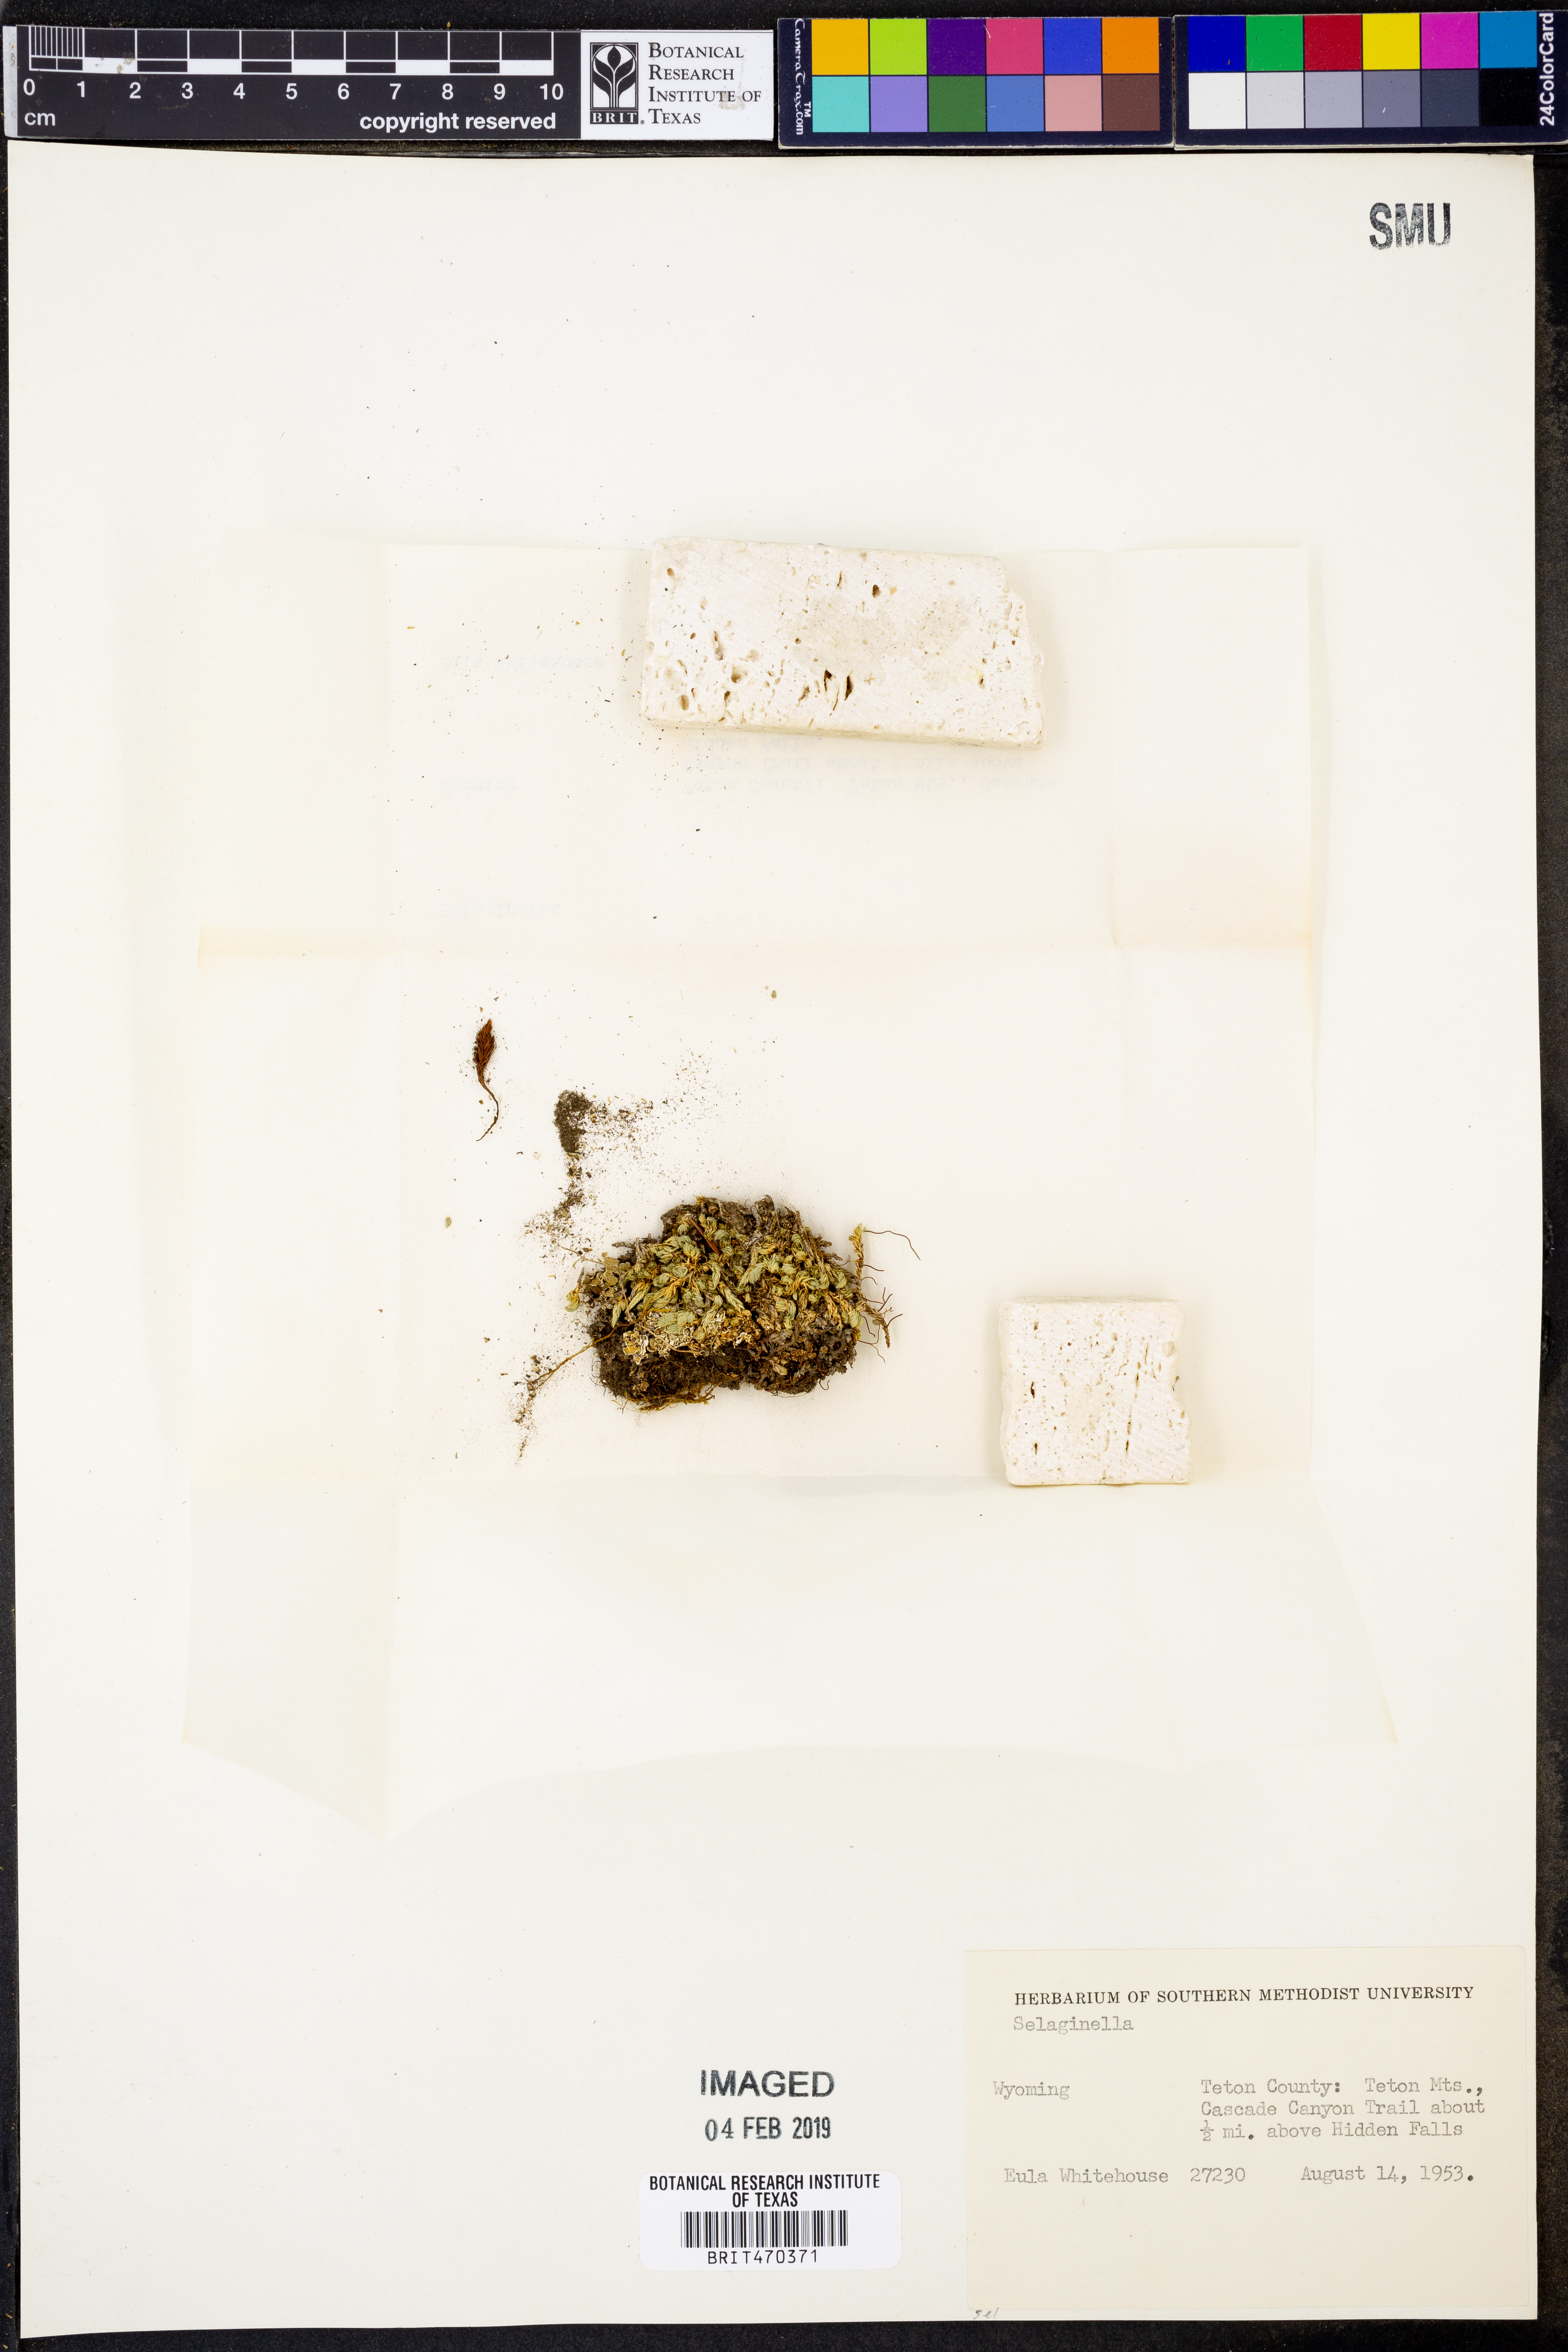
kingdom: Plantae
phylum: Tracheophyta
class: Lycopodiopsida
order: Selaginellales
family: Selaginellaceae
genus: Selaginella
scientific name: Selaginella
